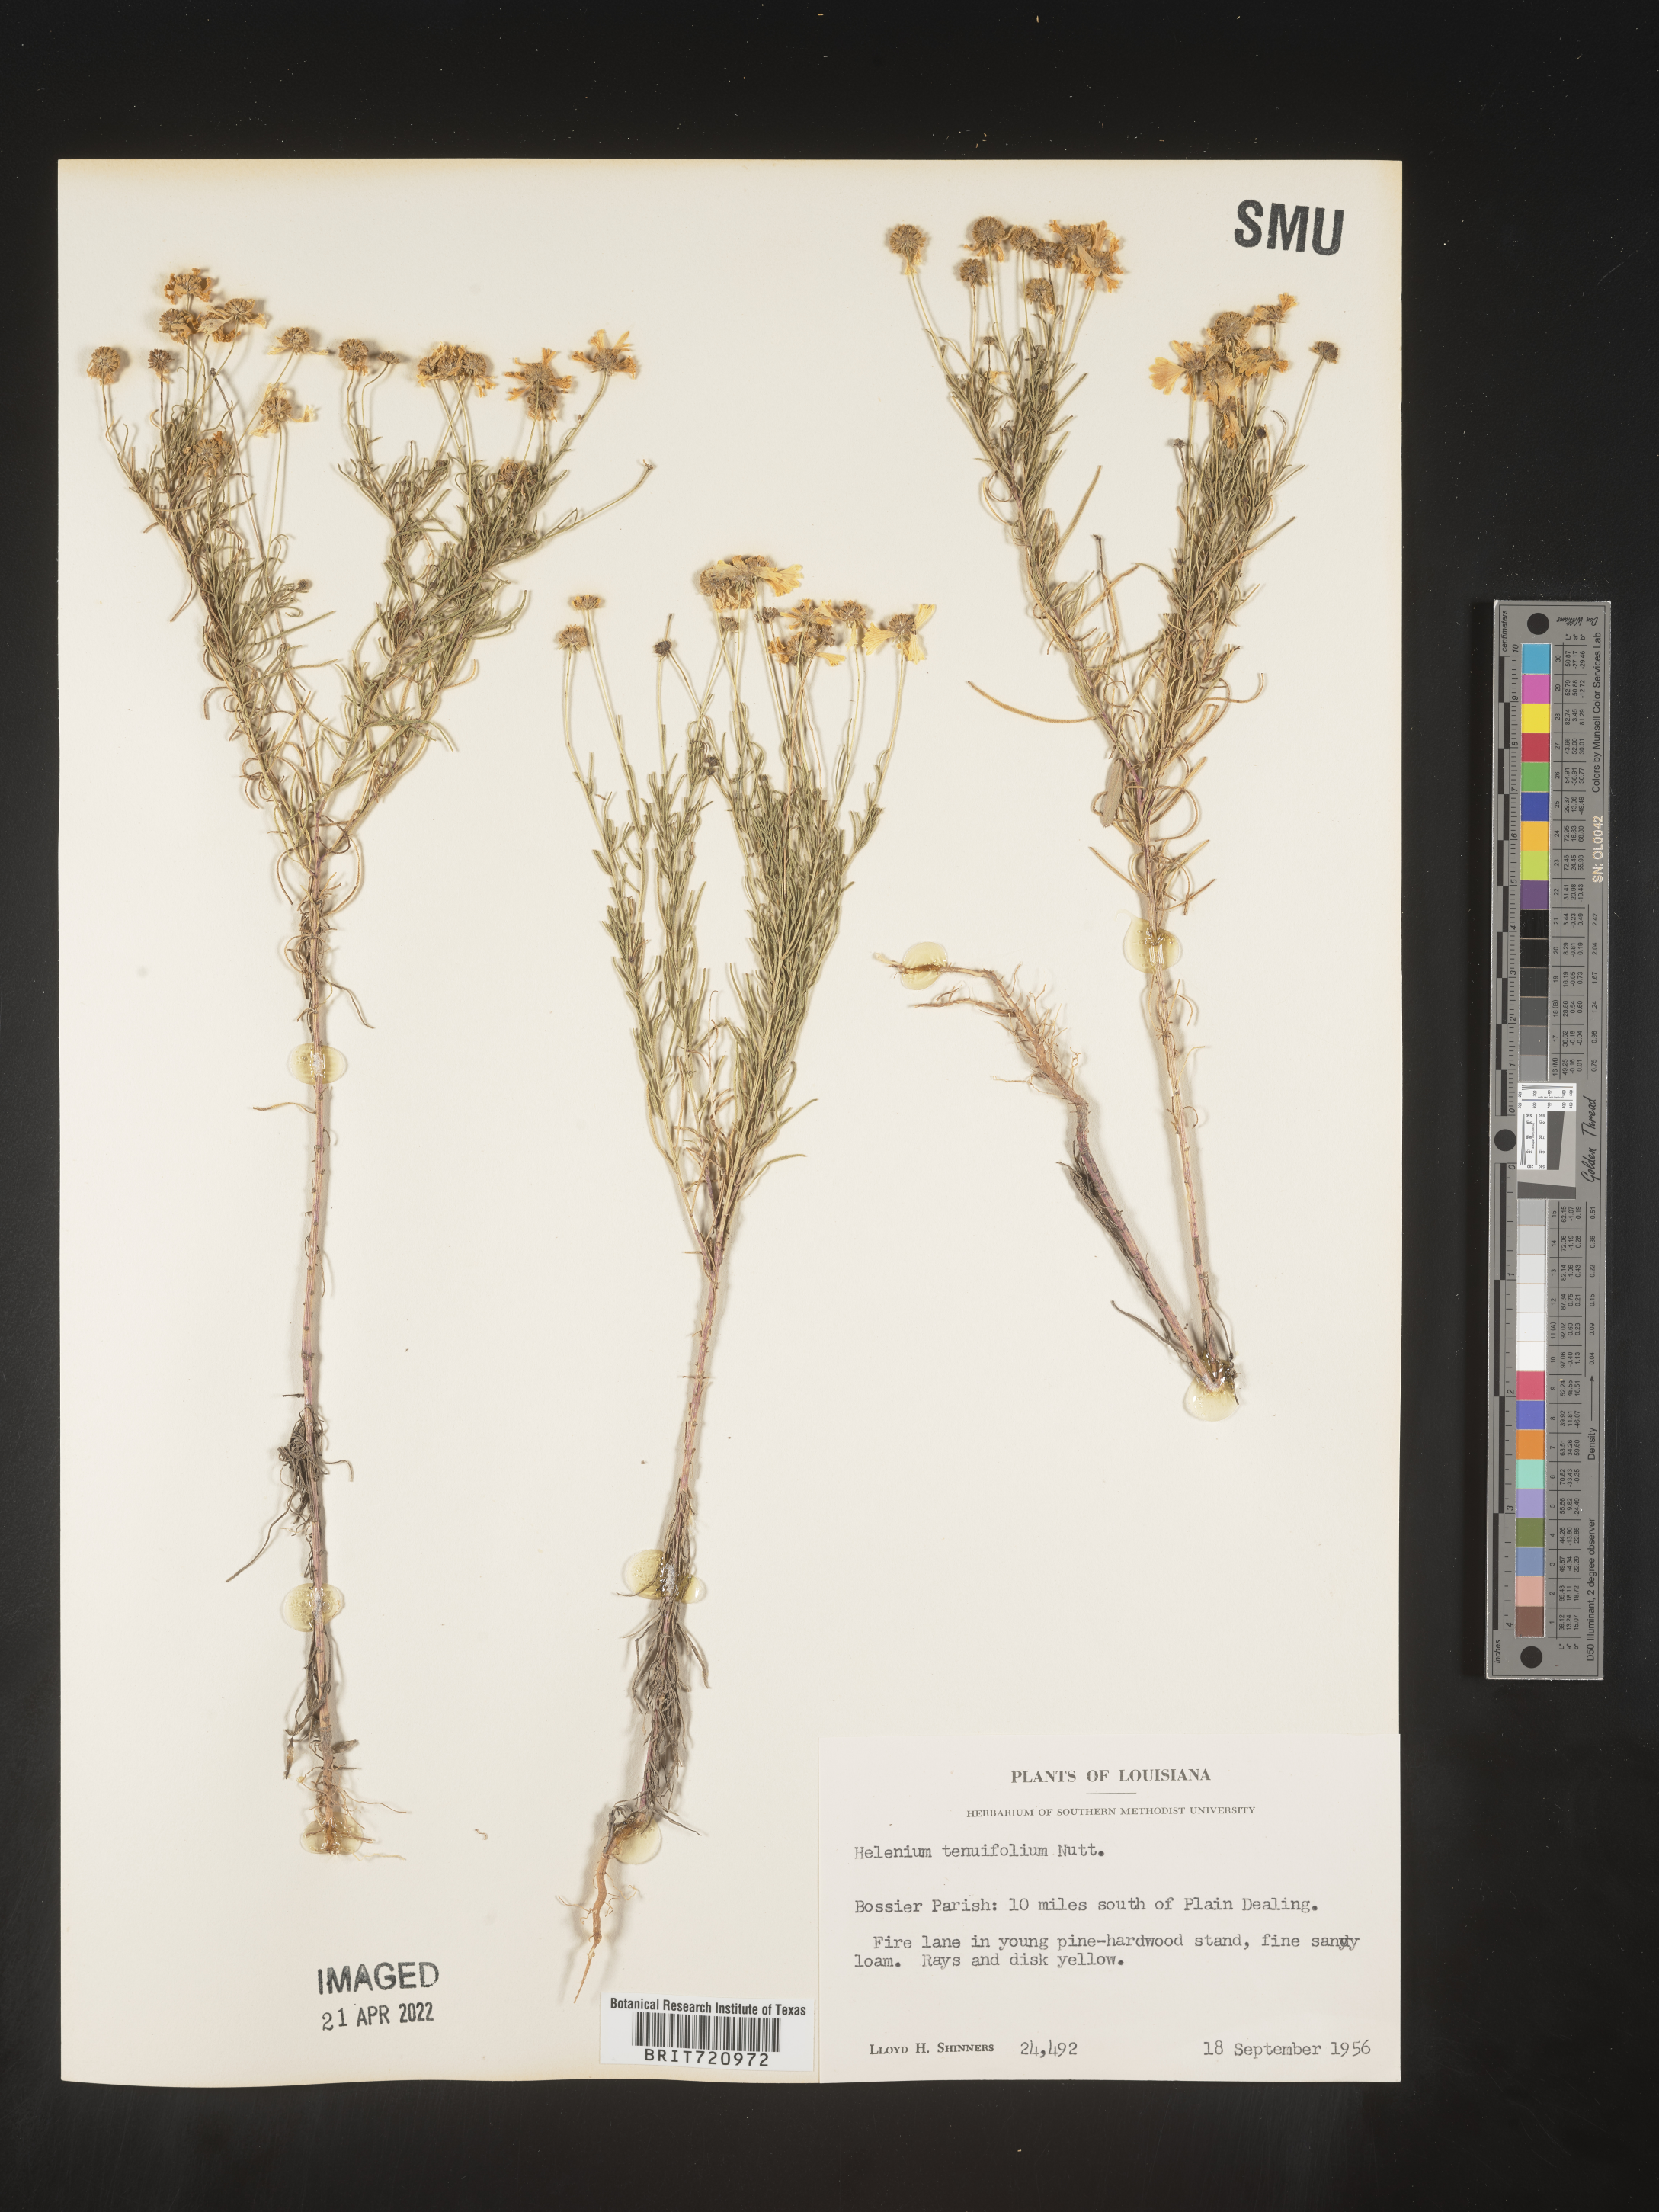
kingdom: Plantae
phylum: Tracheophyta
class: Magnoliopsida
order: Asterales
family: Asteraceae
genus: Helenium
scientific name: Helenium amarum
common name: Bitter sneezeweed
